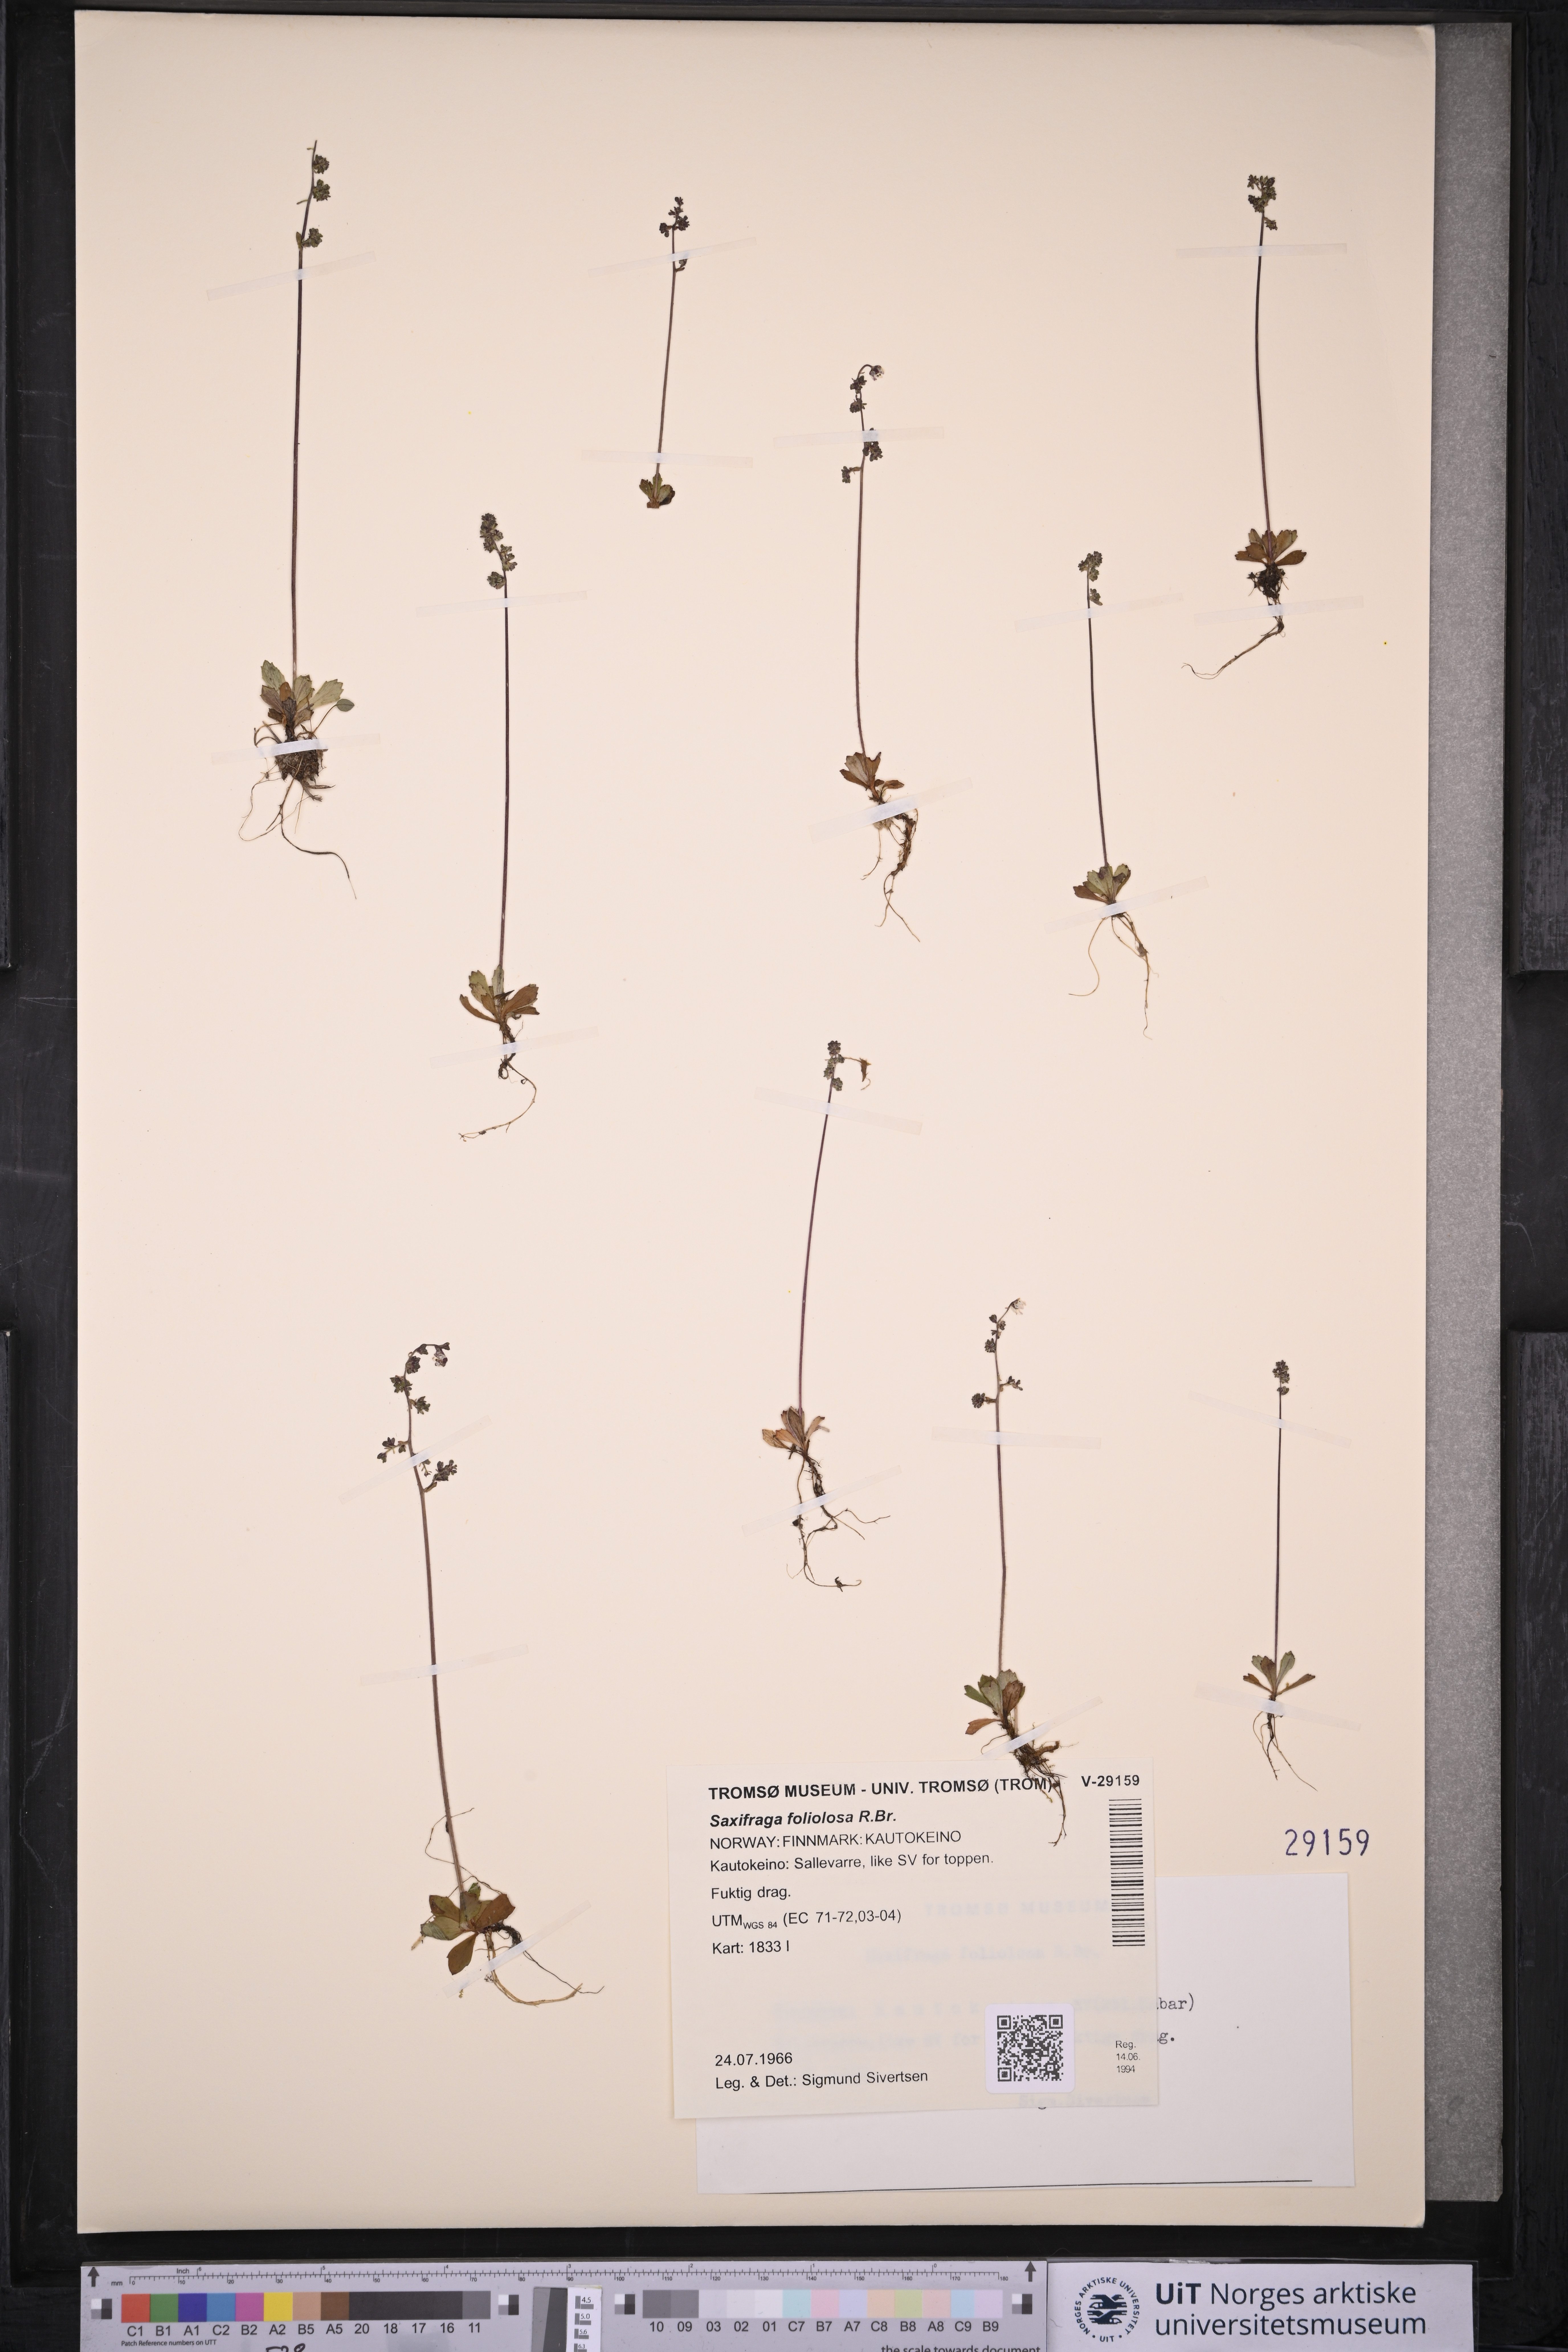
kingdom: Plantae
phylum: Tracheophyta
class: Magnoliopsida
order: Saxifragales
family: Saxifragaceae
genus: Micranthes
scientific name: Micranthes foliolosa
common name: Leafystem saxifrage
